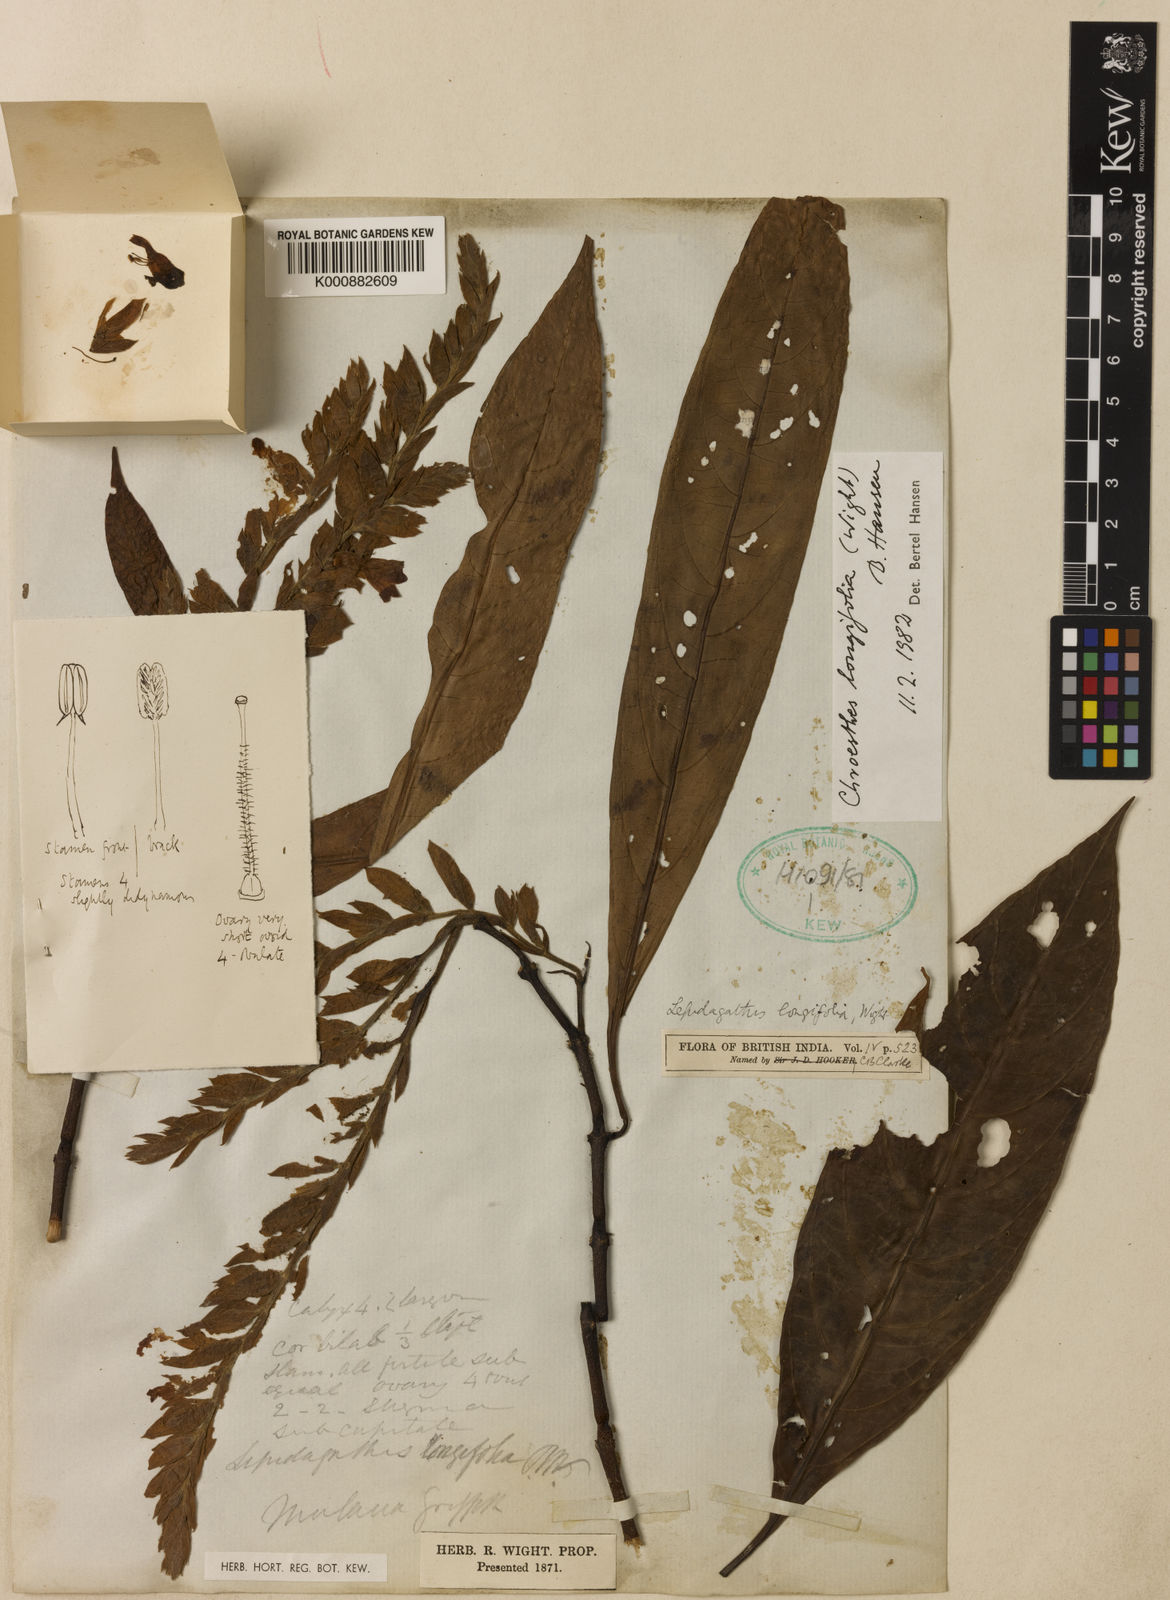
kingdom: Plantae
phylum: Tracheophyta
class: Magnoliopsida
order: Lamiales
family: Acanthaceae
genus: Chroesthes
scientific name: Chroesthes longifolia
